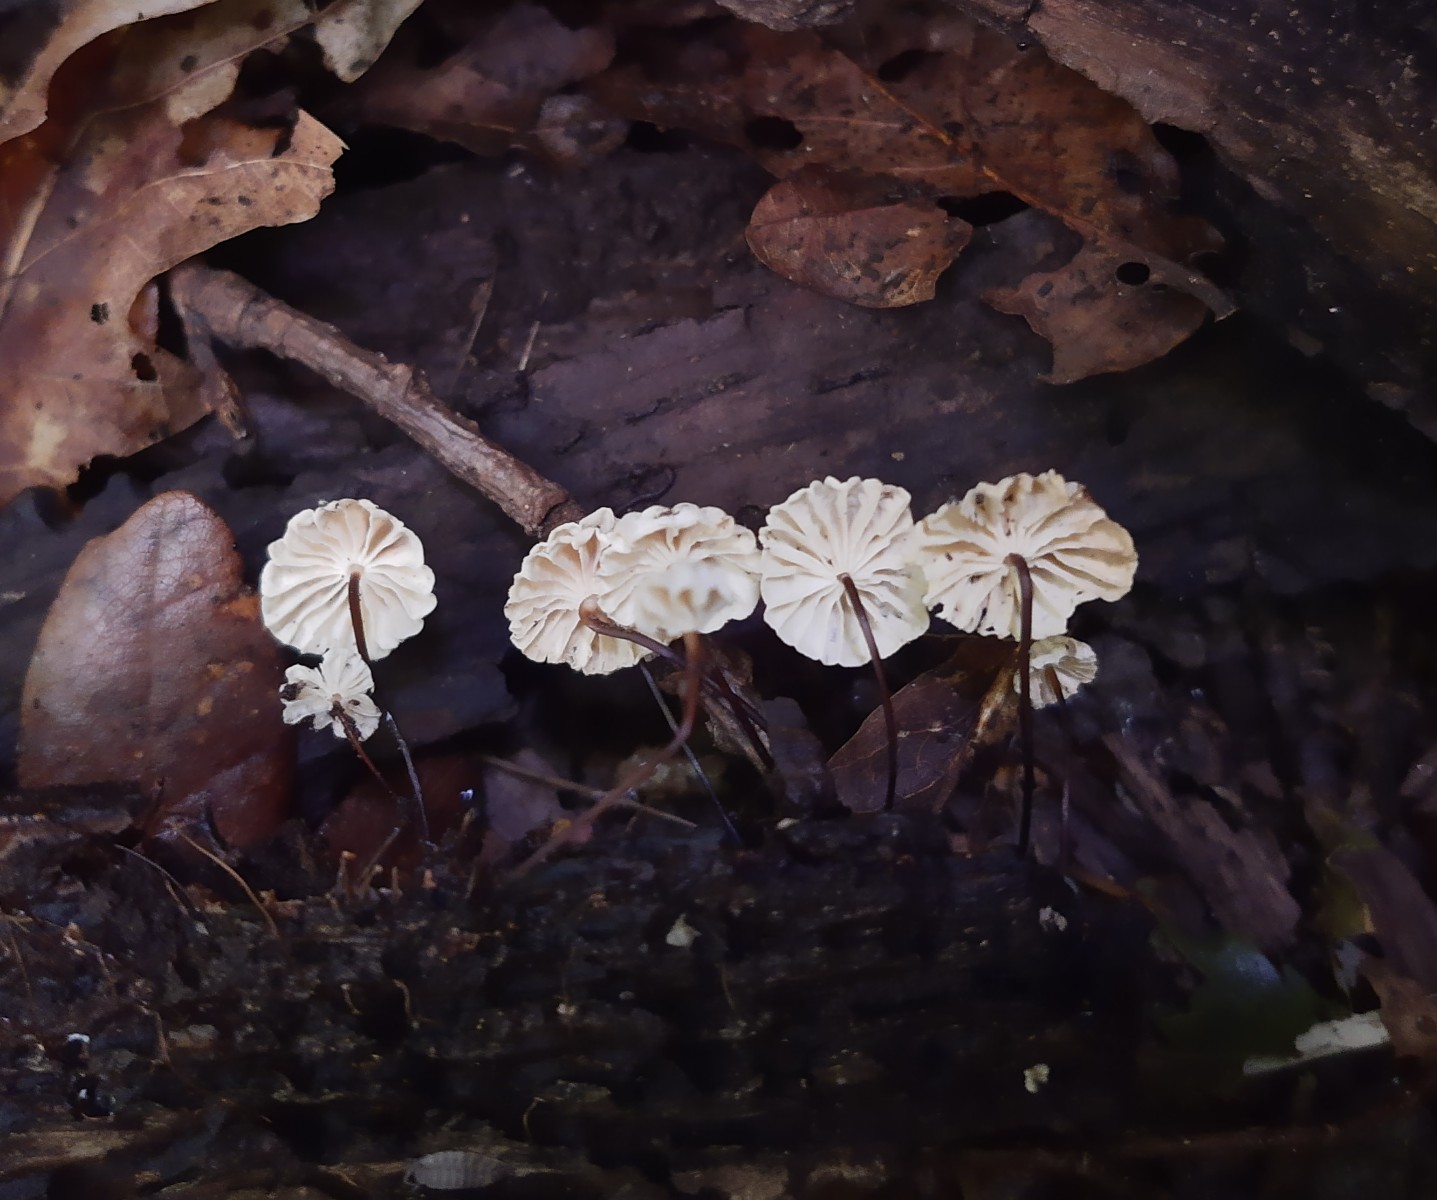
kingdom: Fungi
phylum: Basidiomycota
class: Agaricomycetes
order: Agaricales
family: Marasmiaceae
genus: Marasmius
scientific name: Marasmius rotula
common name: hjul-bruskhat
